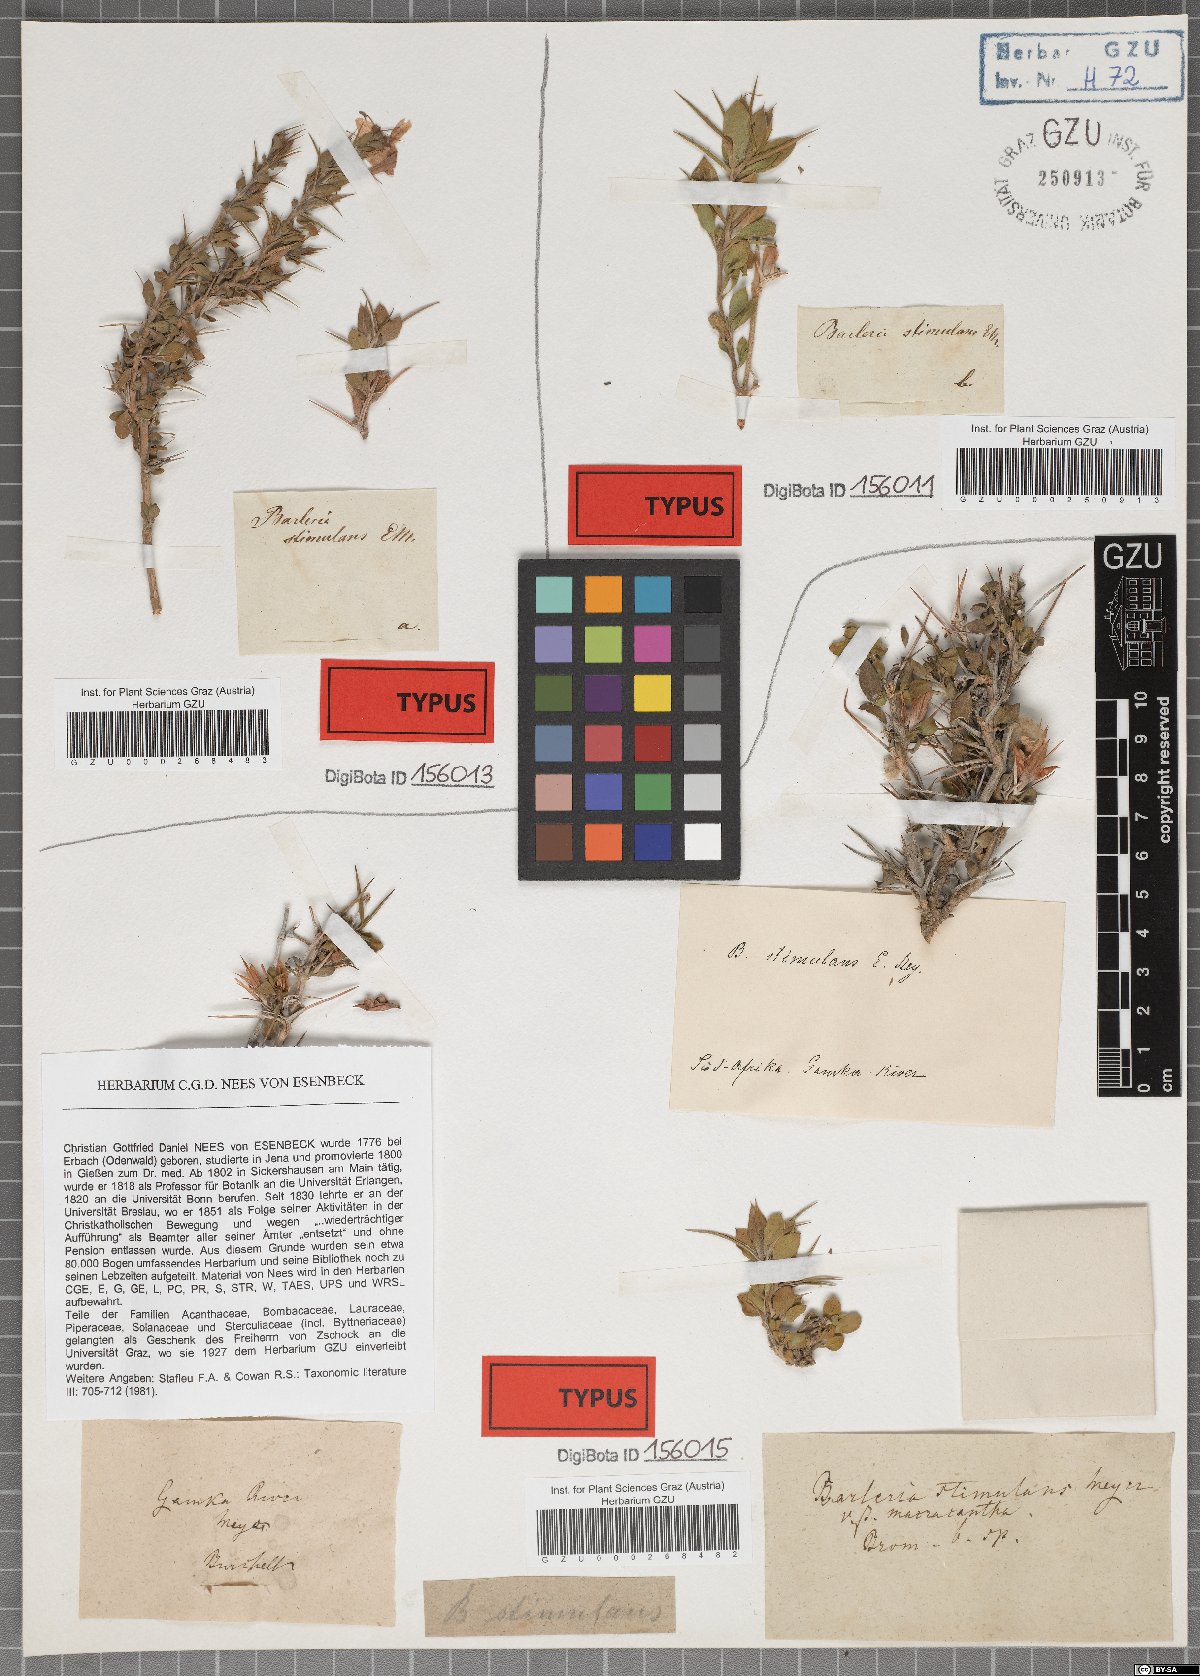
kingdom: Plantae
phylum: Tracheophyta
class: Magnoliopsida
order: Lamiales
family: Acanthaceae
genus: Barleria
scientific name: Barleria stimulans
